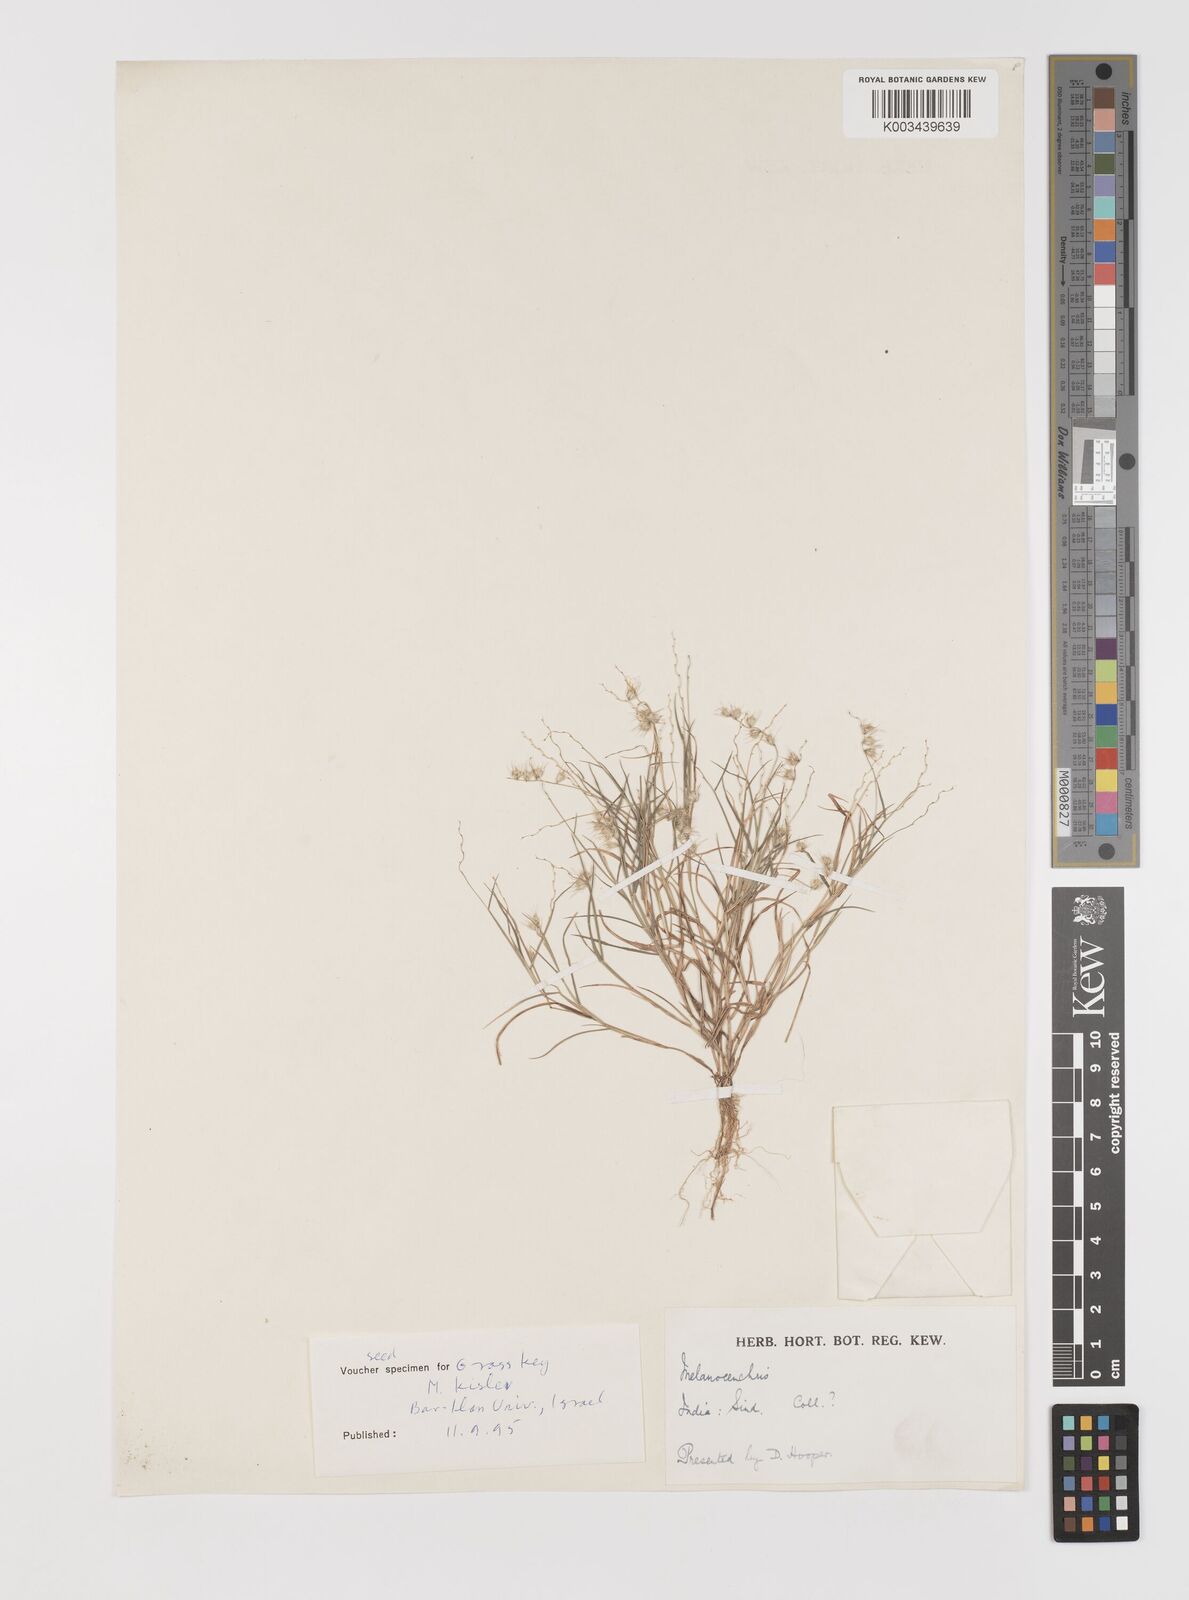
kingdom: Plantae
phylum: Tracheophyta
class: Liliopsida
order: Poales
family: Poaceae
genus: Melanocenchris
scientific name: Melanocenchris jacquemontii
